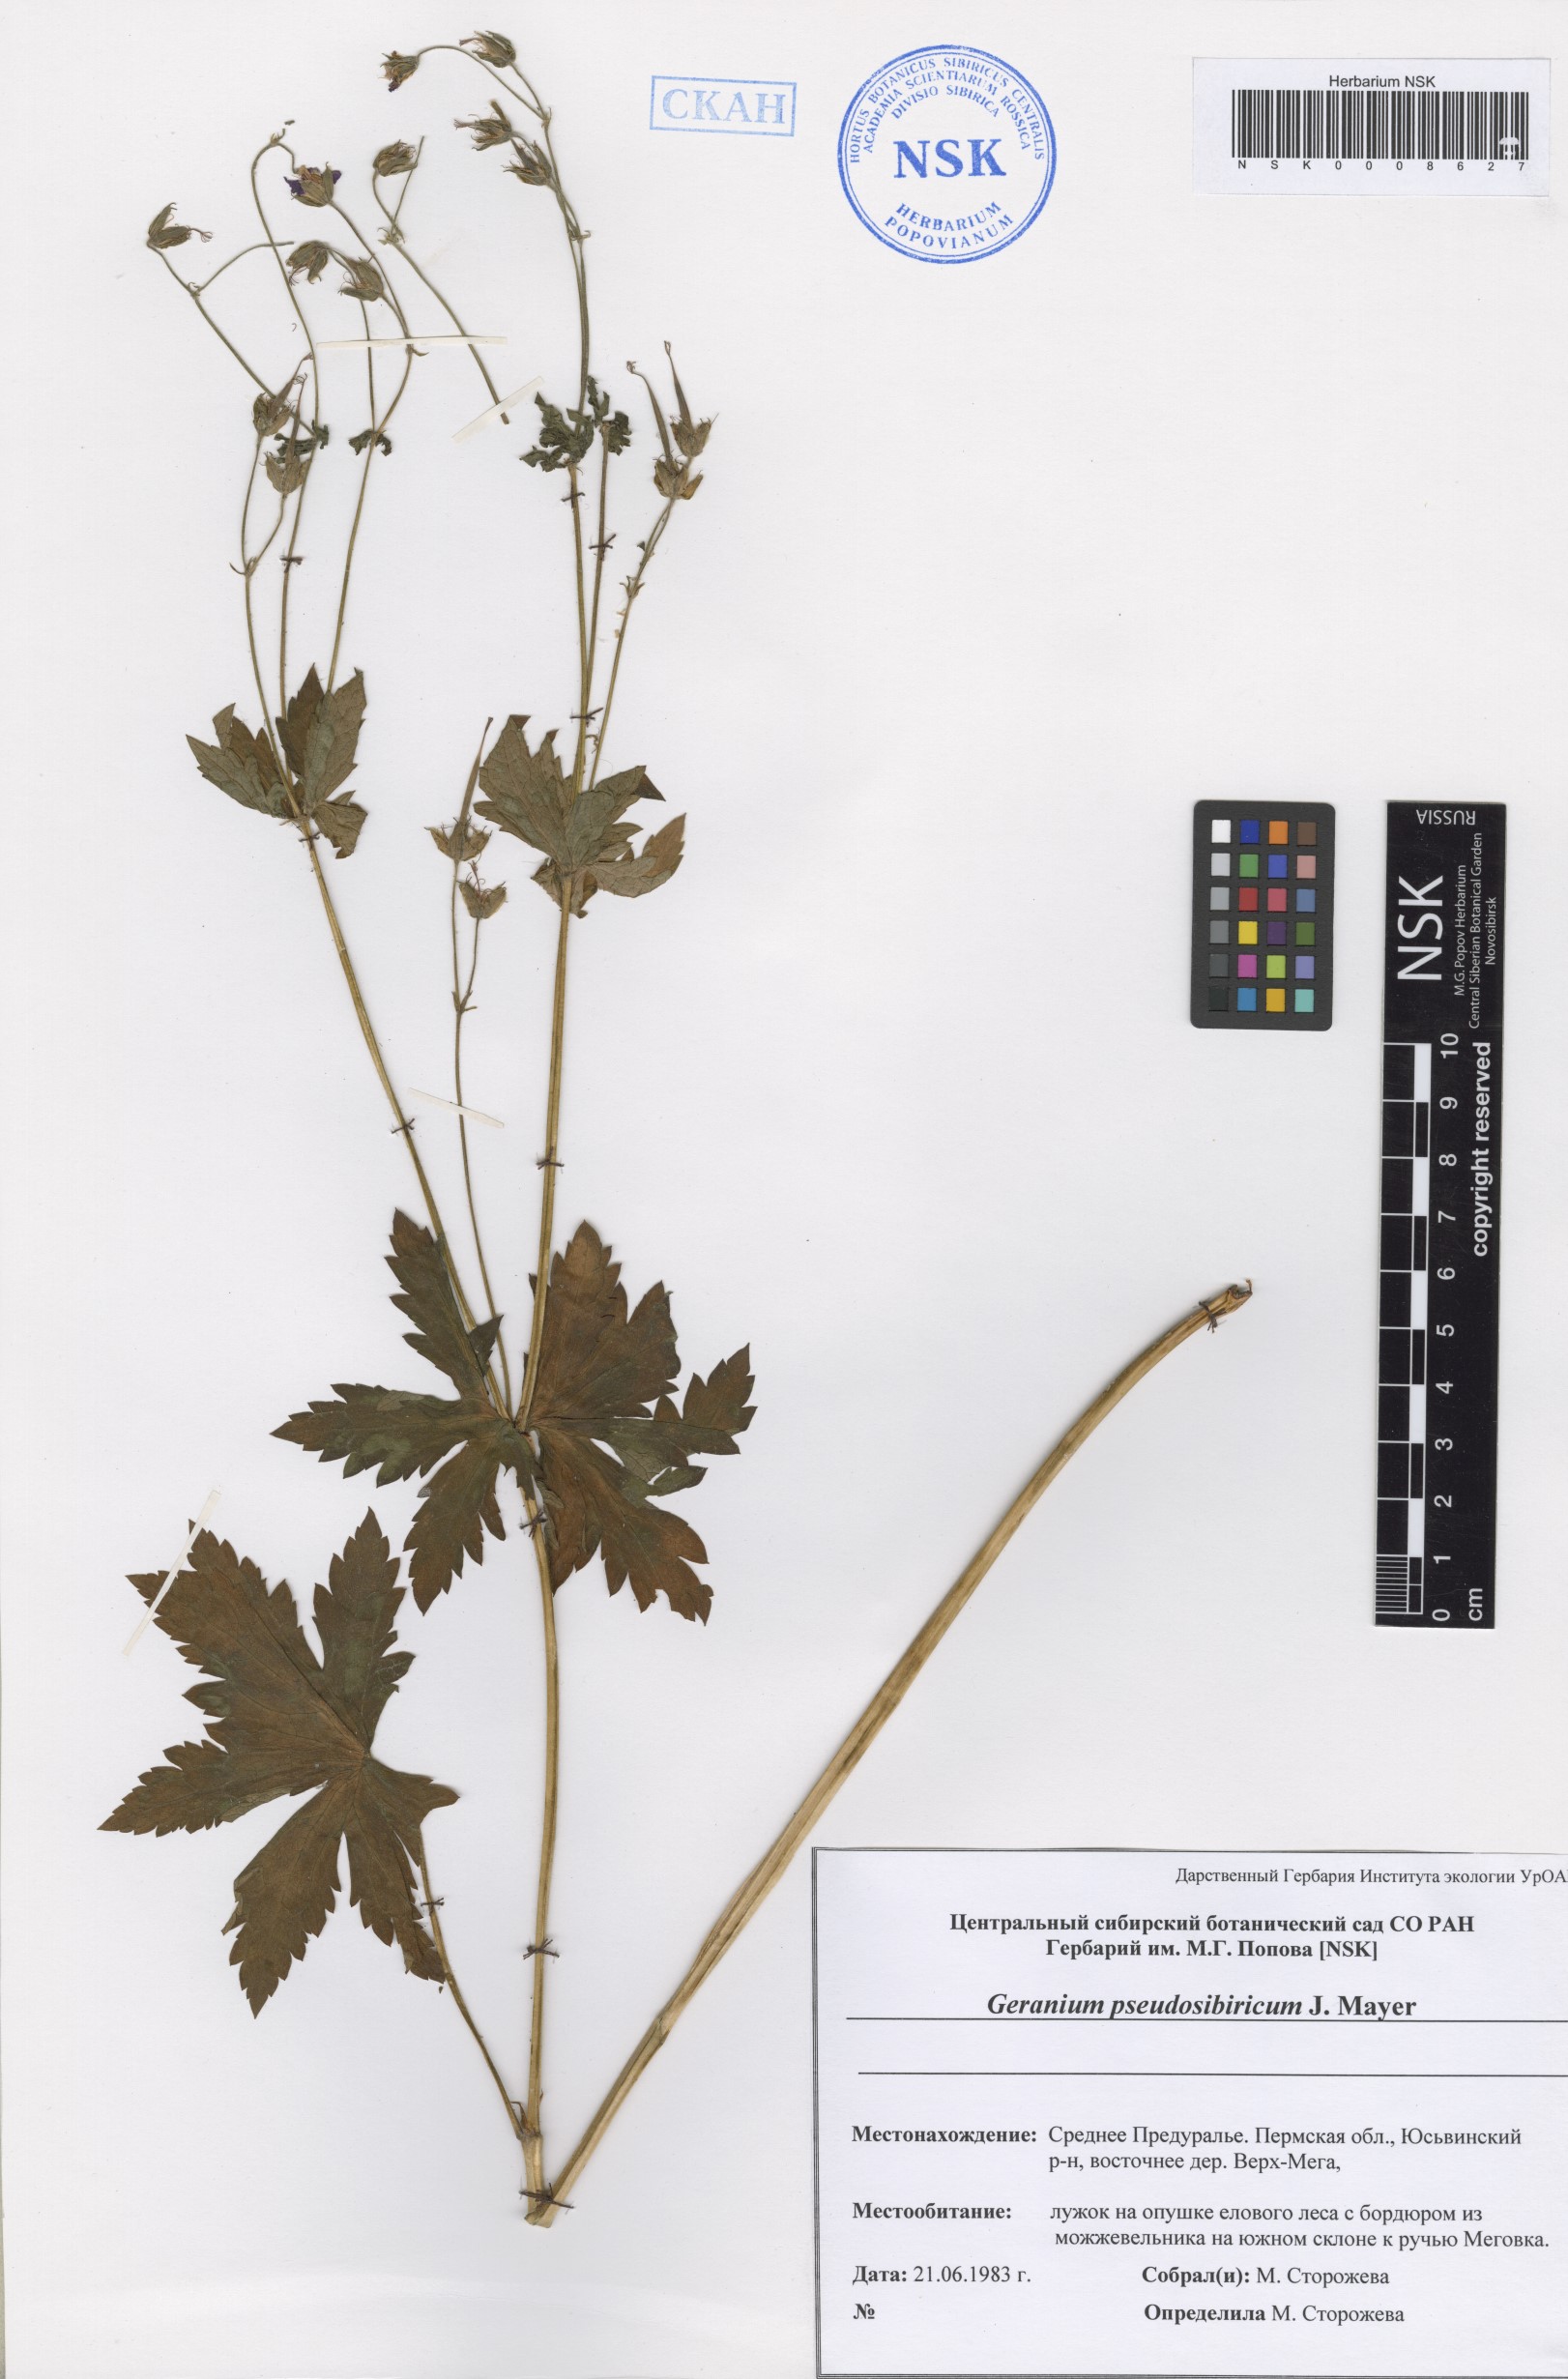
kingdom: Plantae
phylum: Tracheophyta
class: Magnoliopsida
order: Geraniales
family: Geraniaceae
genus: Geranium
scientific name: Geranium pseudosibiricum
